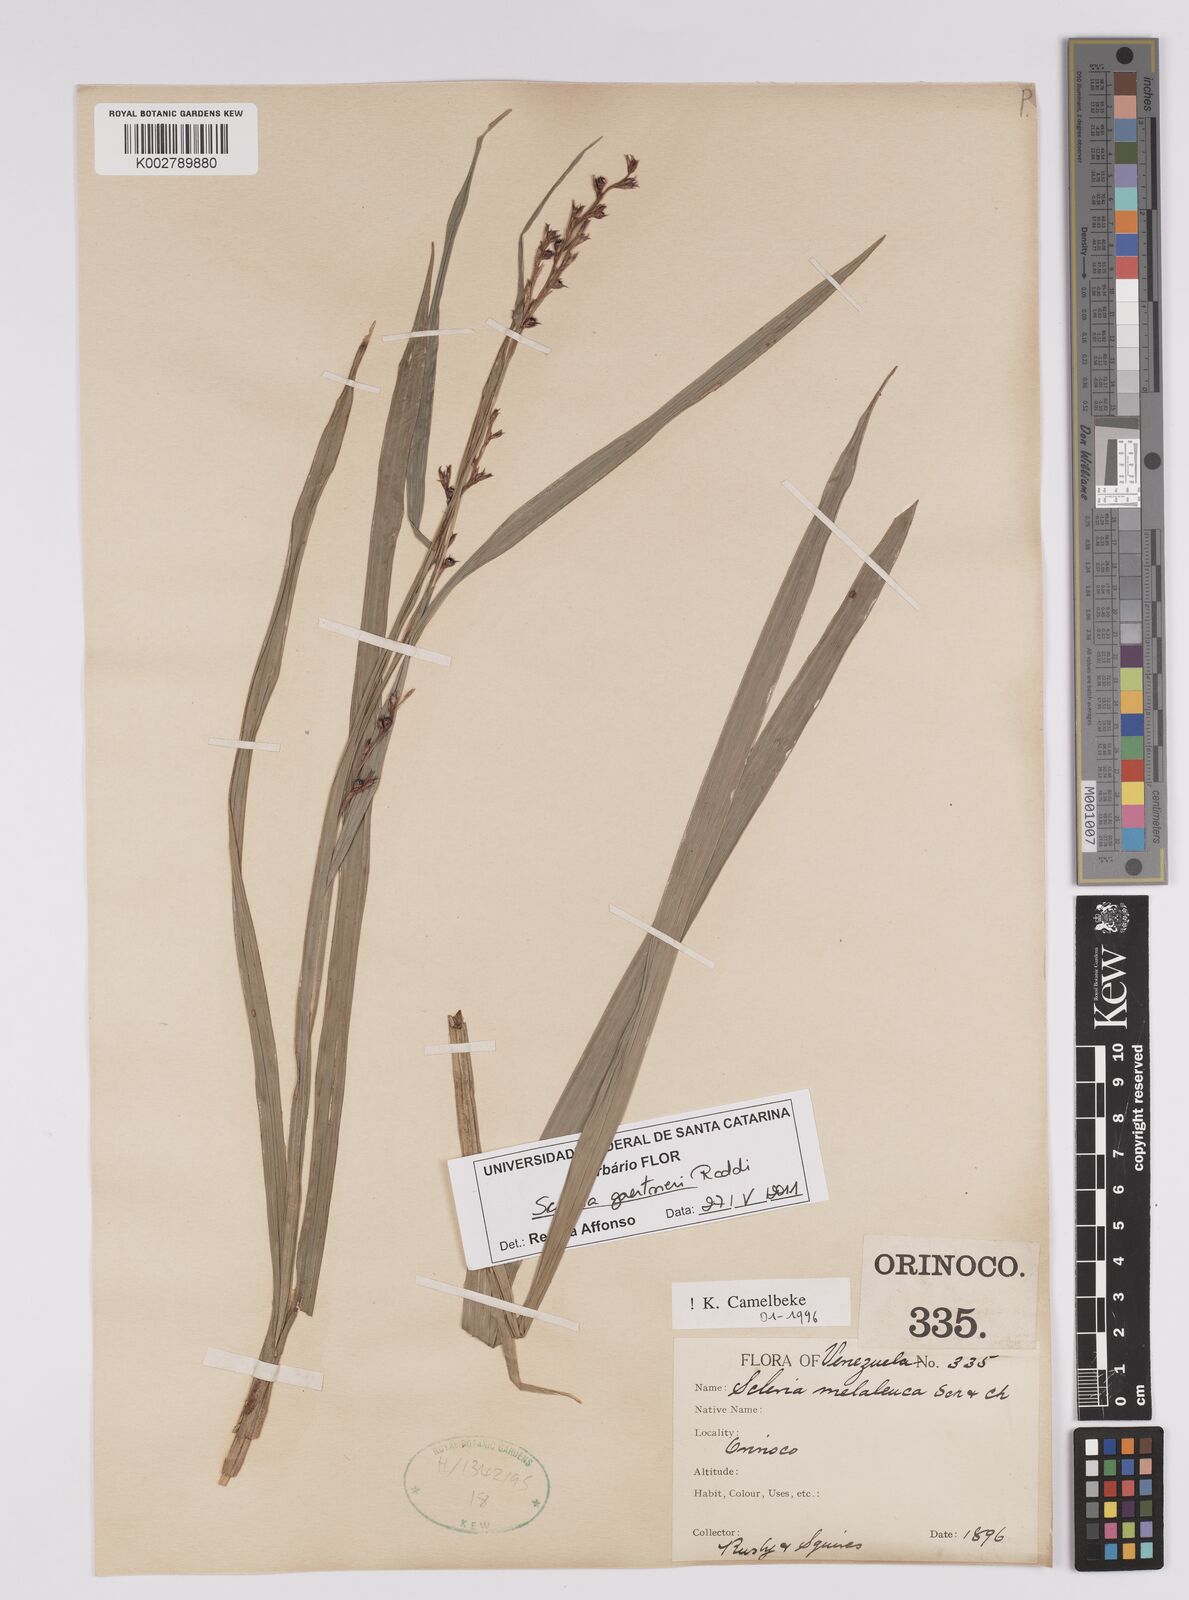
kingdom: Plantae
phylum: Tracheophyta
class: Liliopsida
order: Poales
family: Cyperaceae
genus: Scleria
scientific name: Scleria gaertneri
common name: Cortadera blanca
